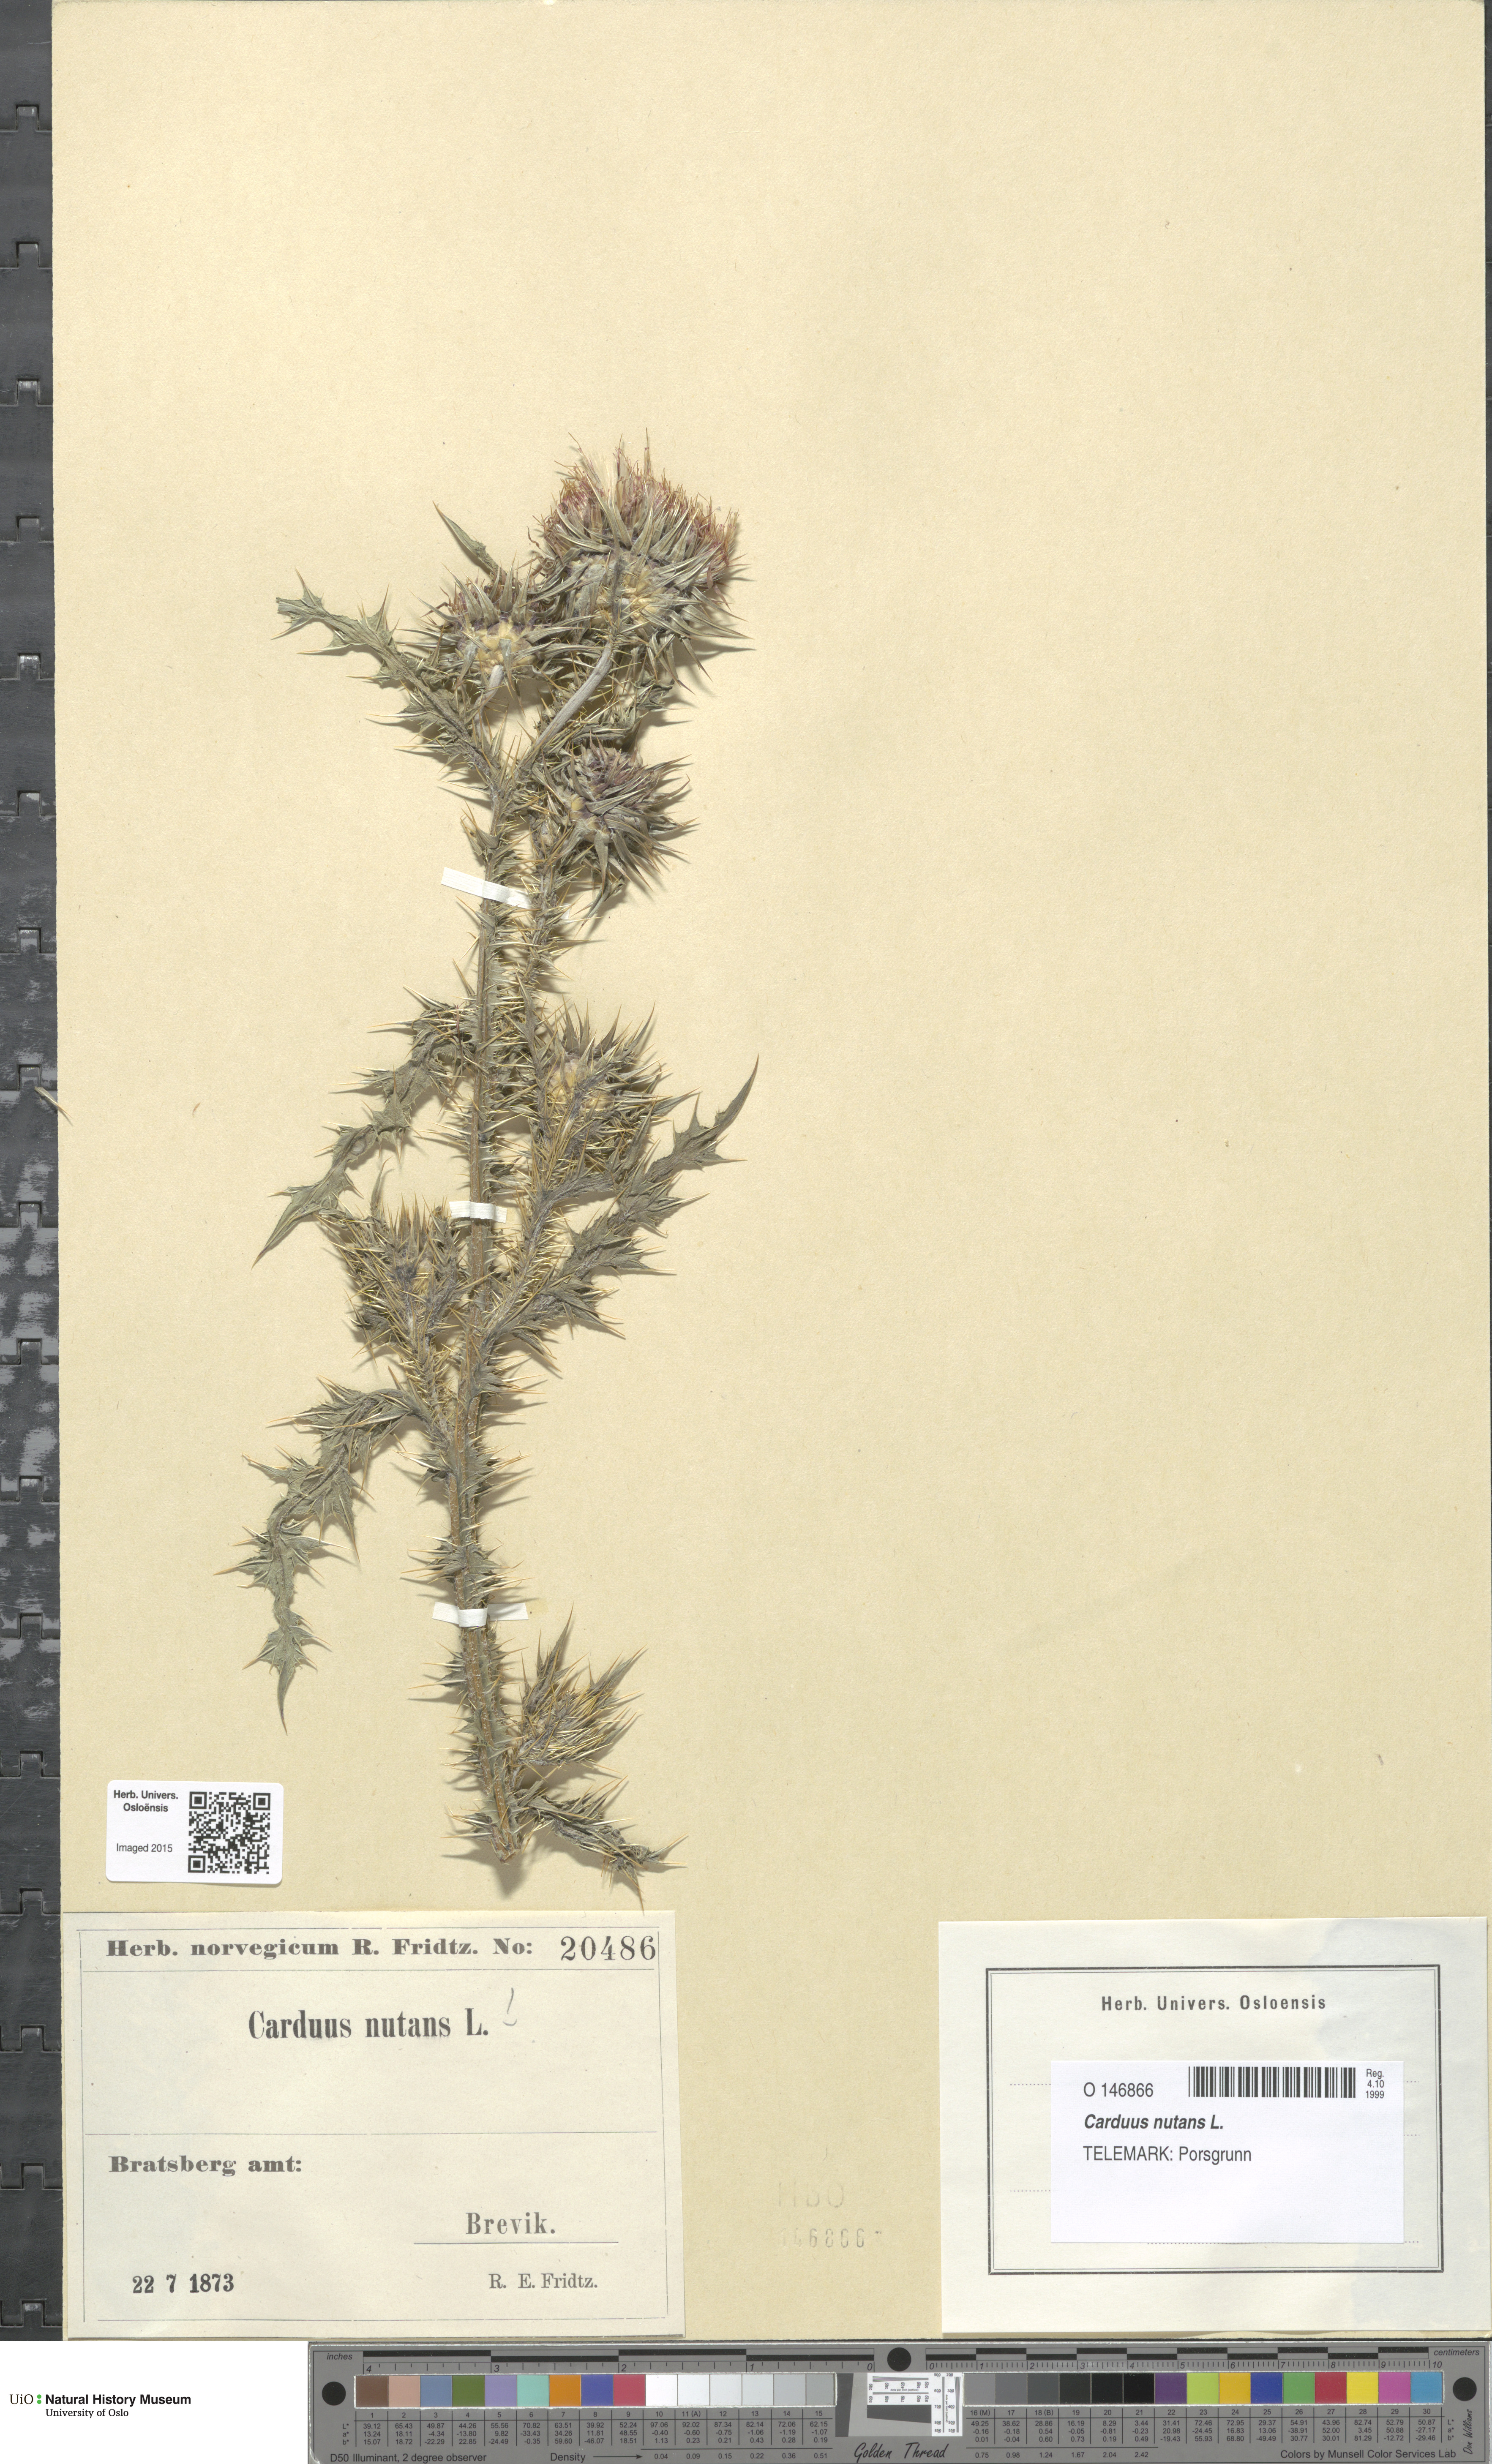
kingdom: Plantae
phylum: Tracheophyta
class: Magnoliopsida
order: Asterales
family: Asteraceae
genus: Carduus
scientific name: Carduus nutans
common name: Musk thistle
